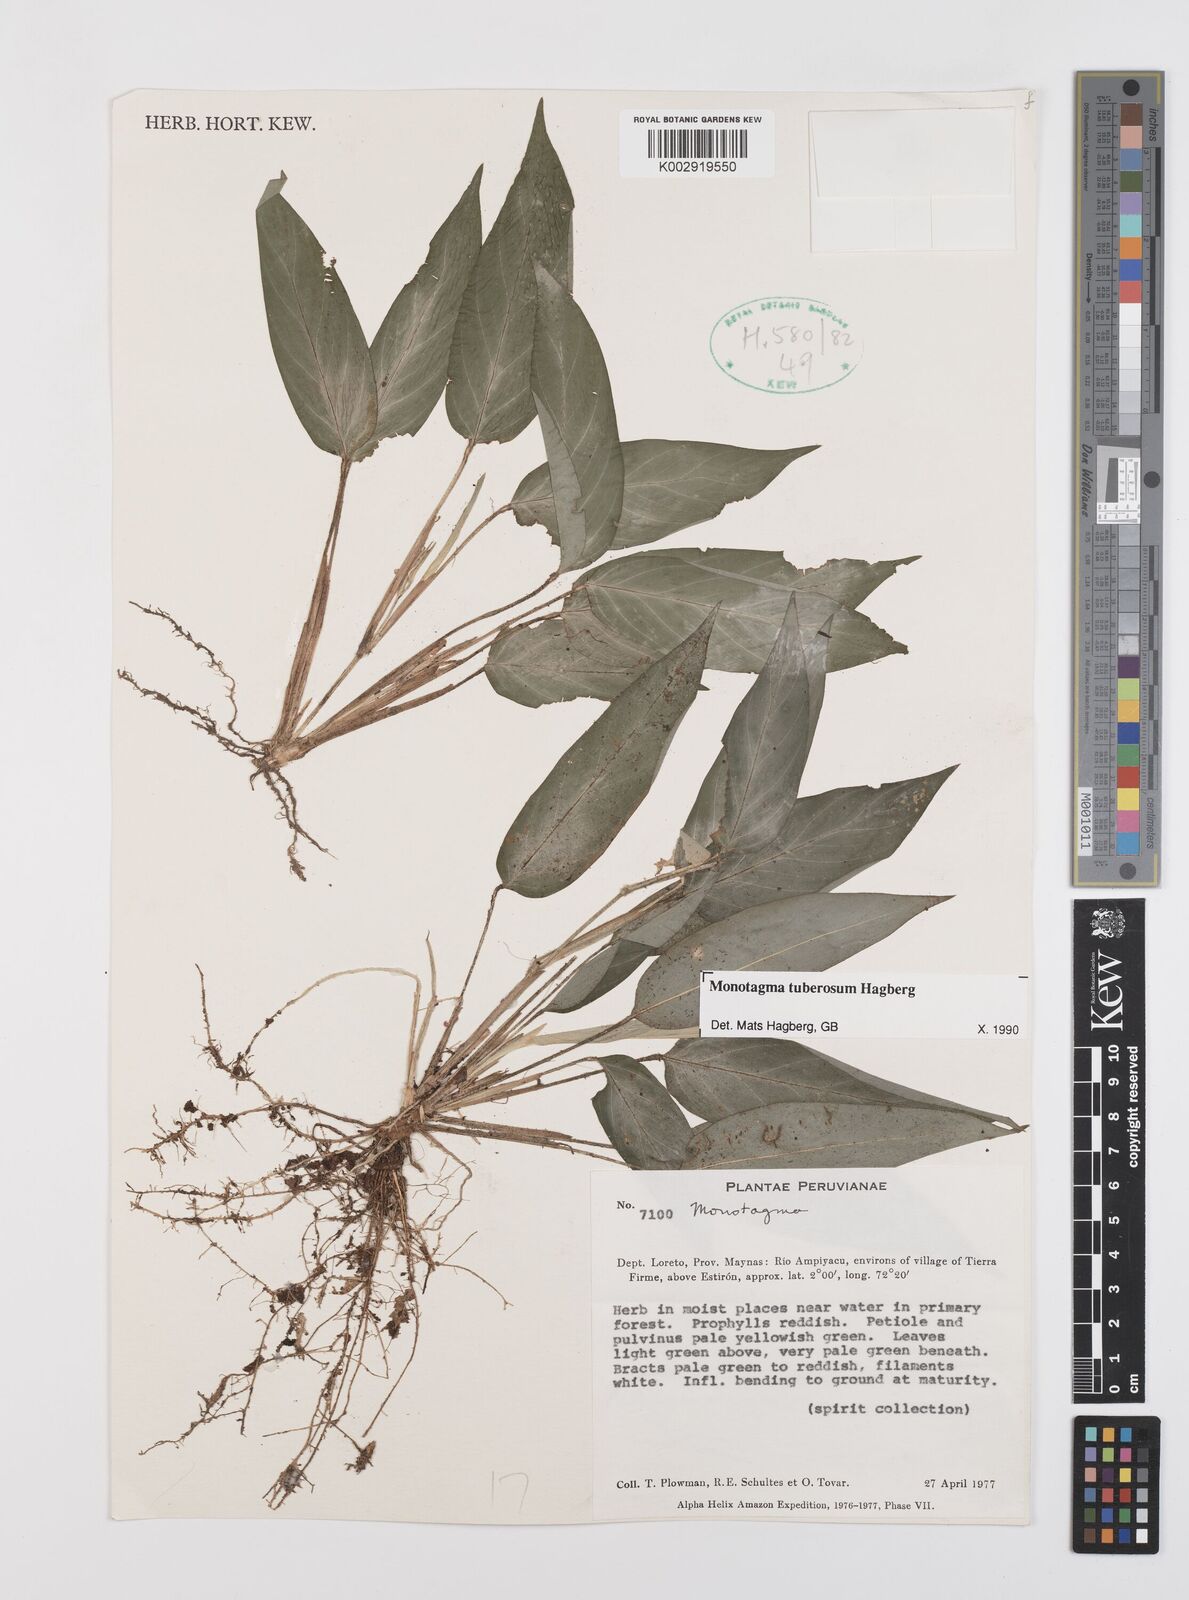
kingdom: Plantae
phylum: Tracheophyta
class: Liliopsida
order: Zingiberales
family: Marantaceae
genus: Monotagma
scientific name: Monotagma tuberosum
